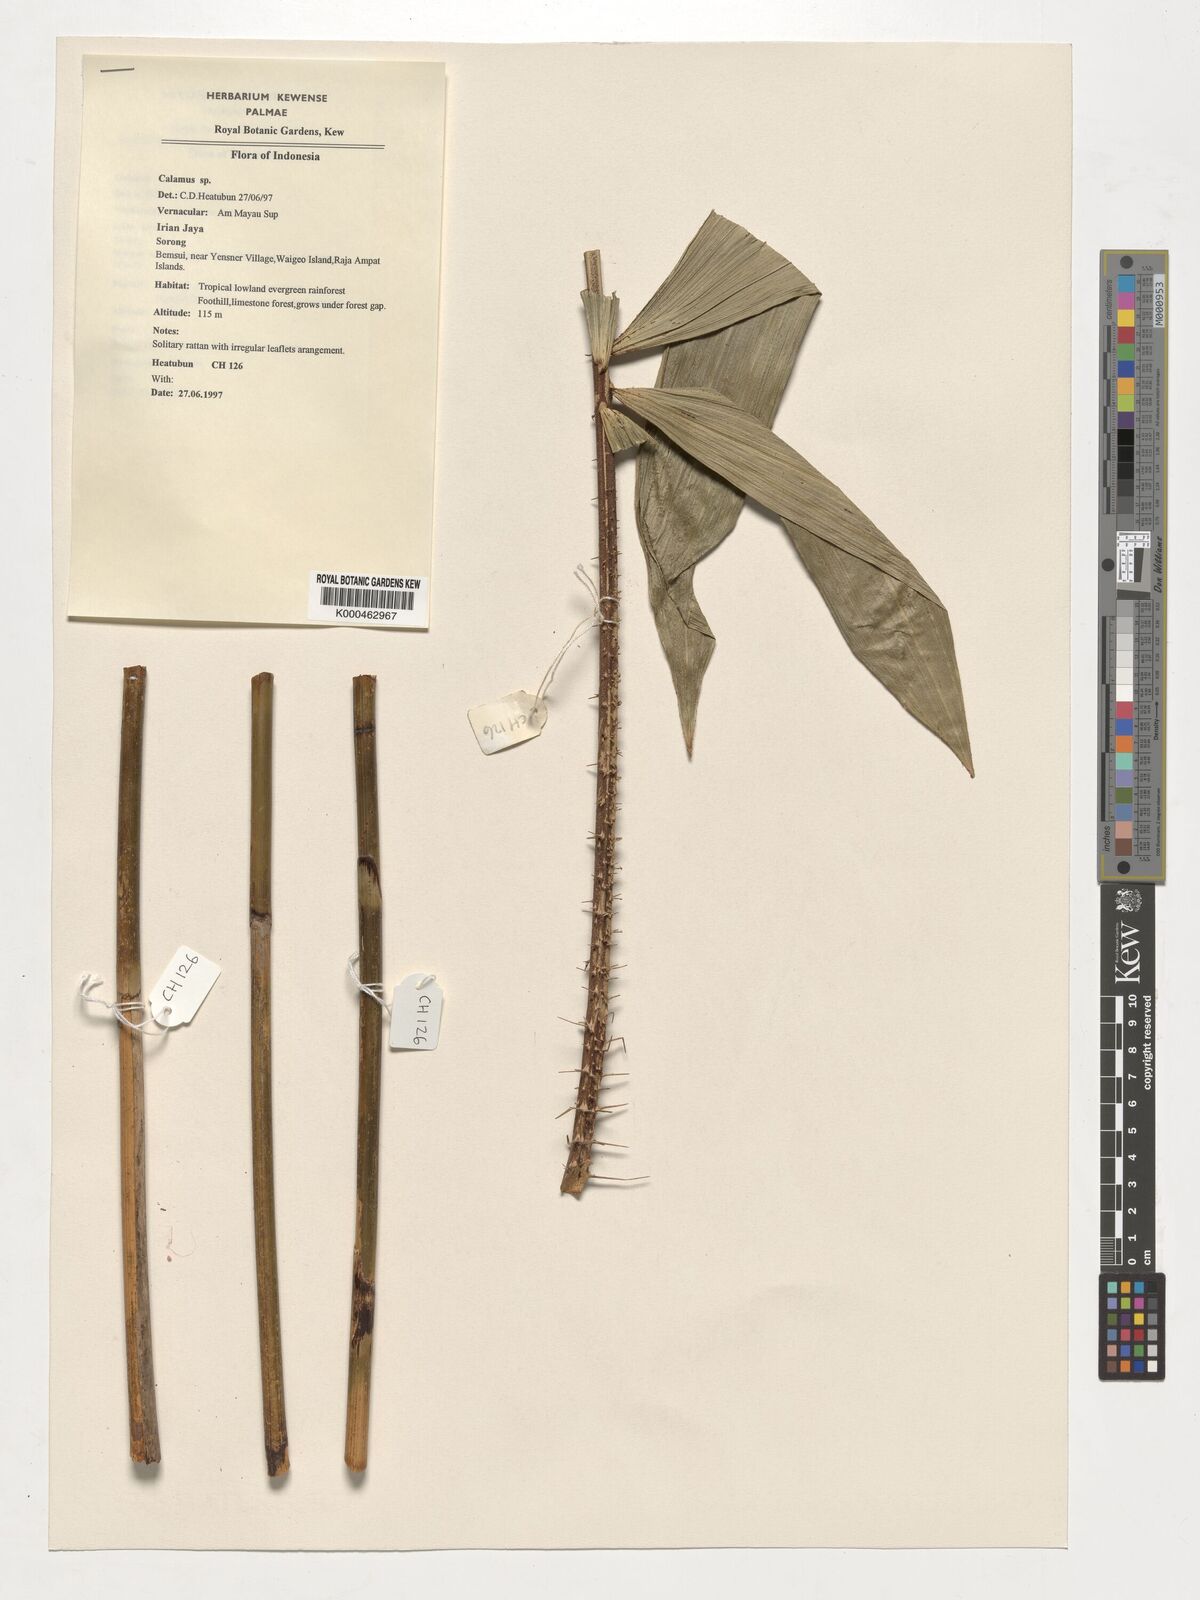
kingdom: Plantae
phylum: Tracheophyta
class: Liliopsida
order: Arecales
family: Arecaceae
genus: Calamus
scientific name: Calamus
